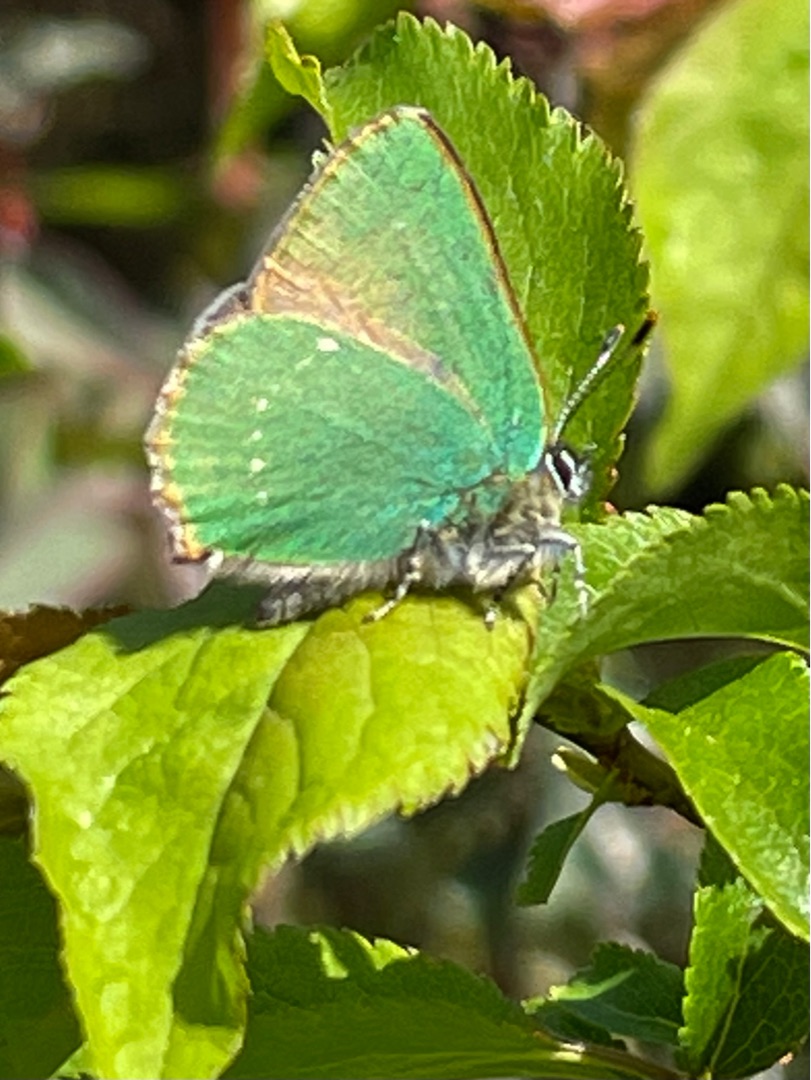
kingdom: Animalia
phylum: Arthropoda
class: Insecta
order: Lepidoptera
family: Lycaenidae
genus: Callophrys
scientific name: Callophrys rubi
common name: Grøn busksommerfugl
